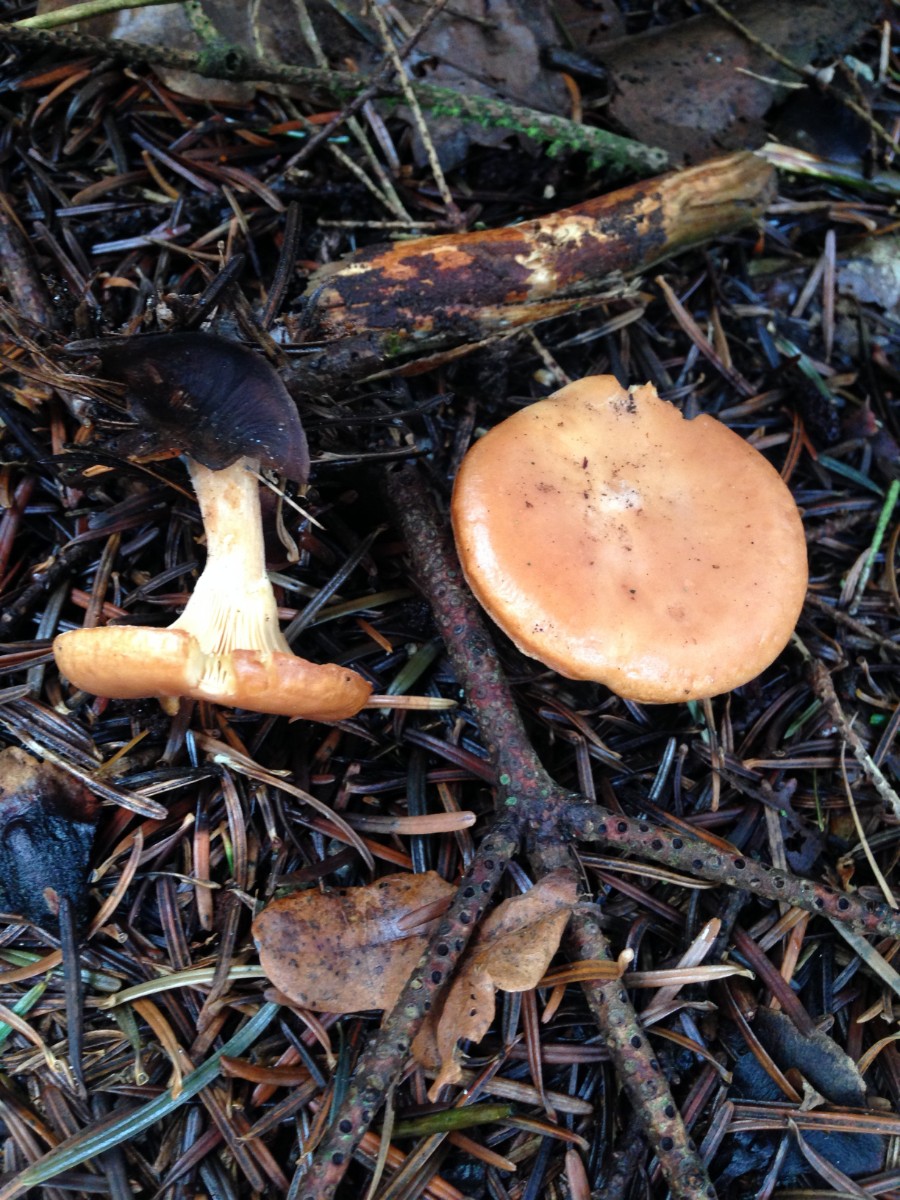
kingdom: Fungi
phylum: Basidiomycota
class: Agaricomycetes
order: Agaricales
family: Tricholomataceae
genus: Paralepista
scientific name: Paralepista flaccida
